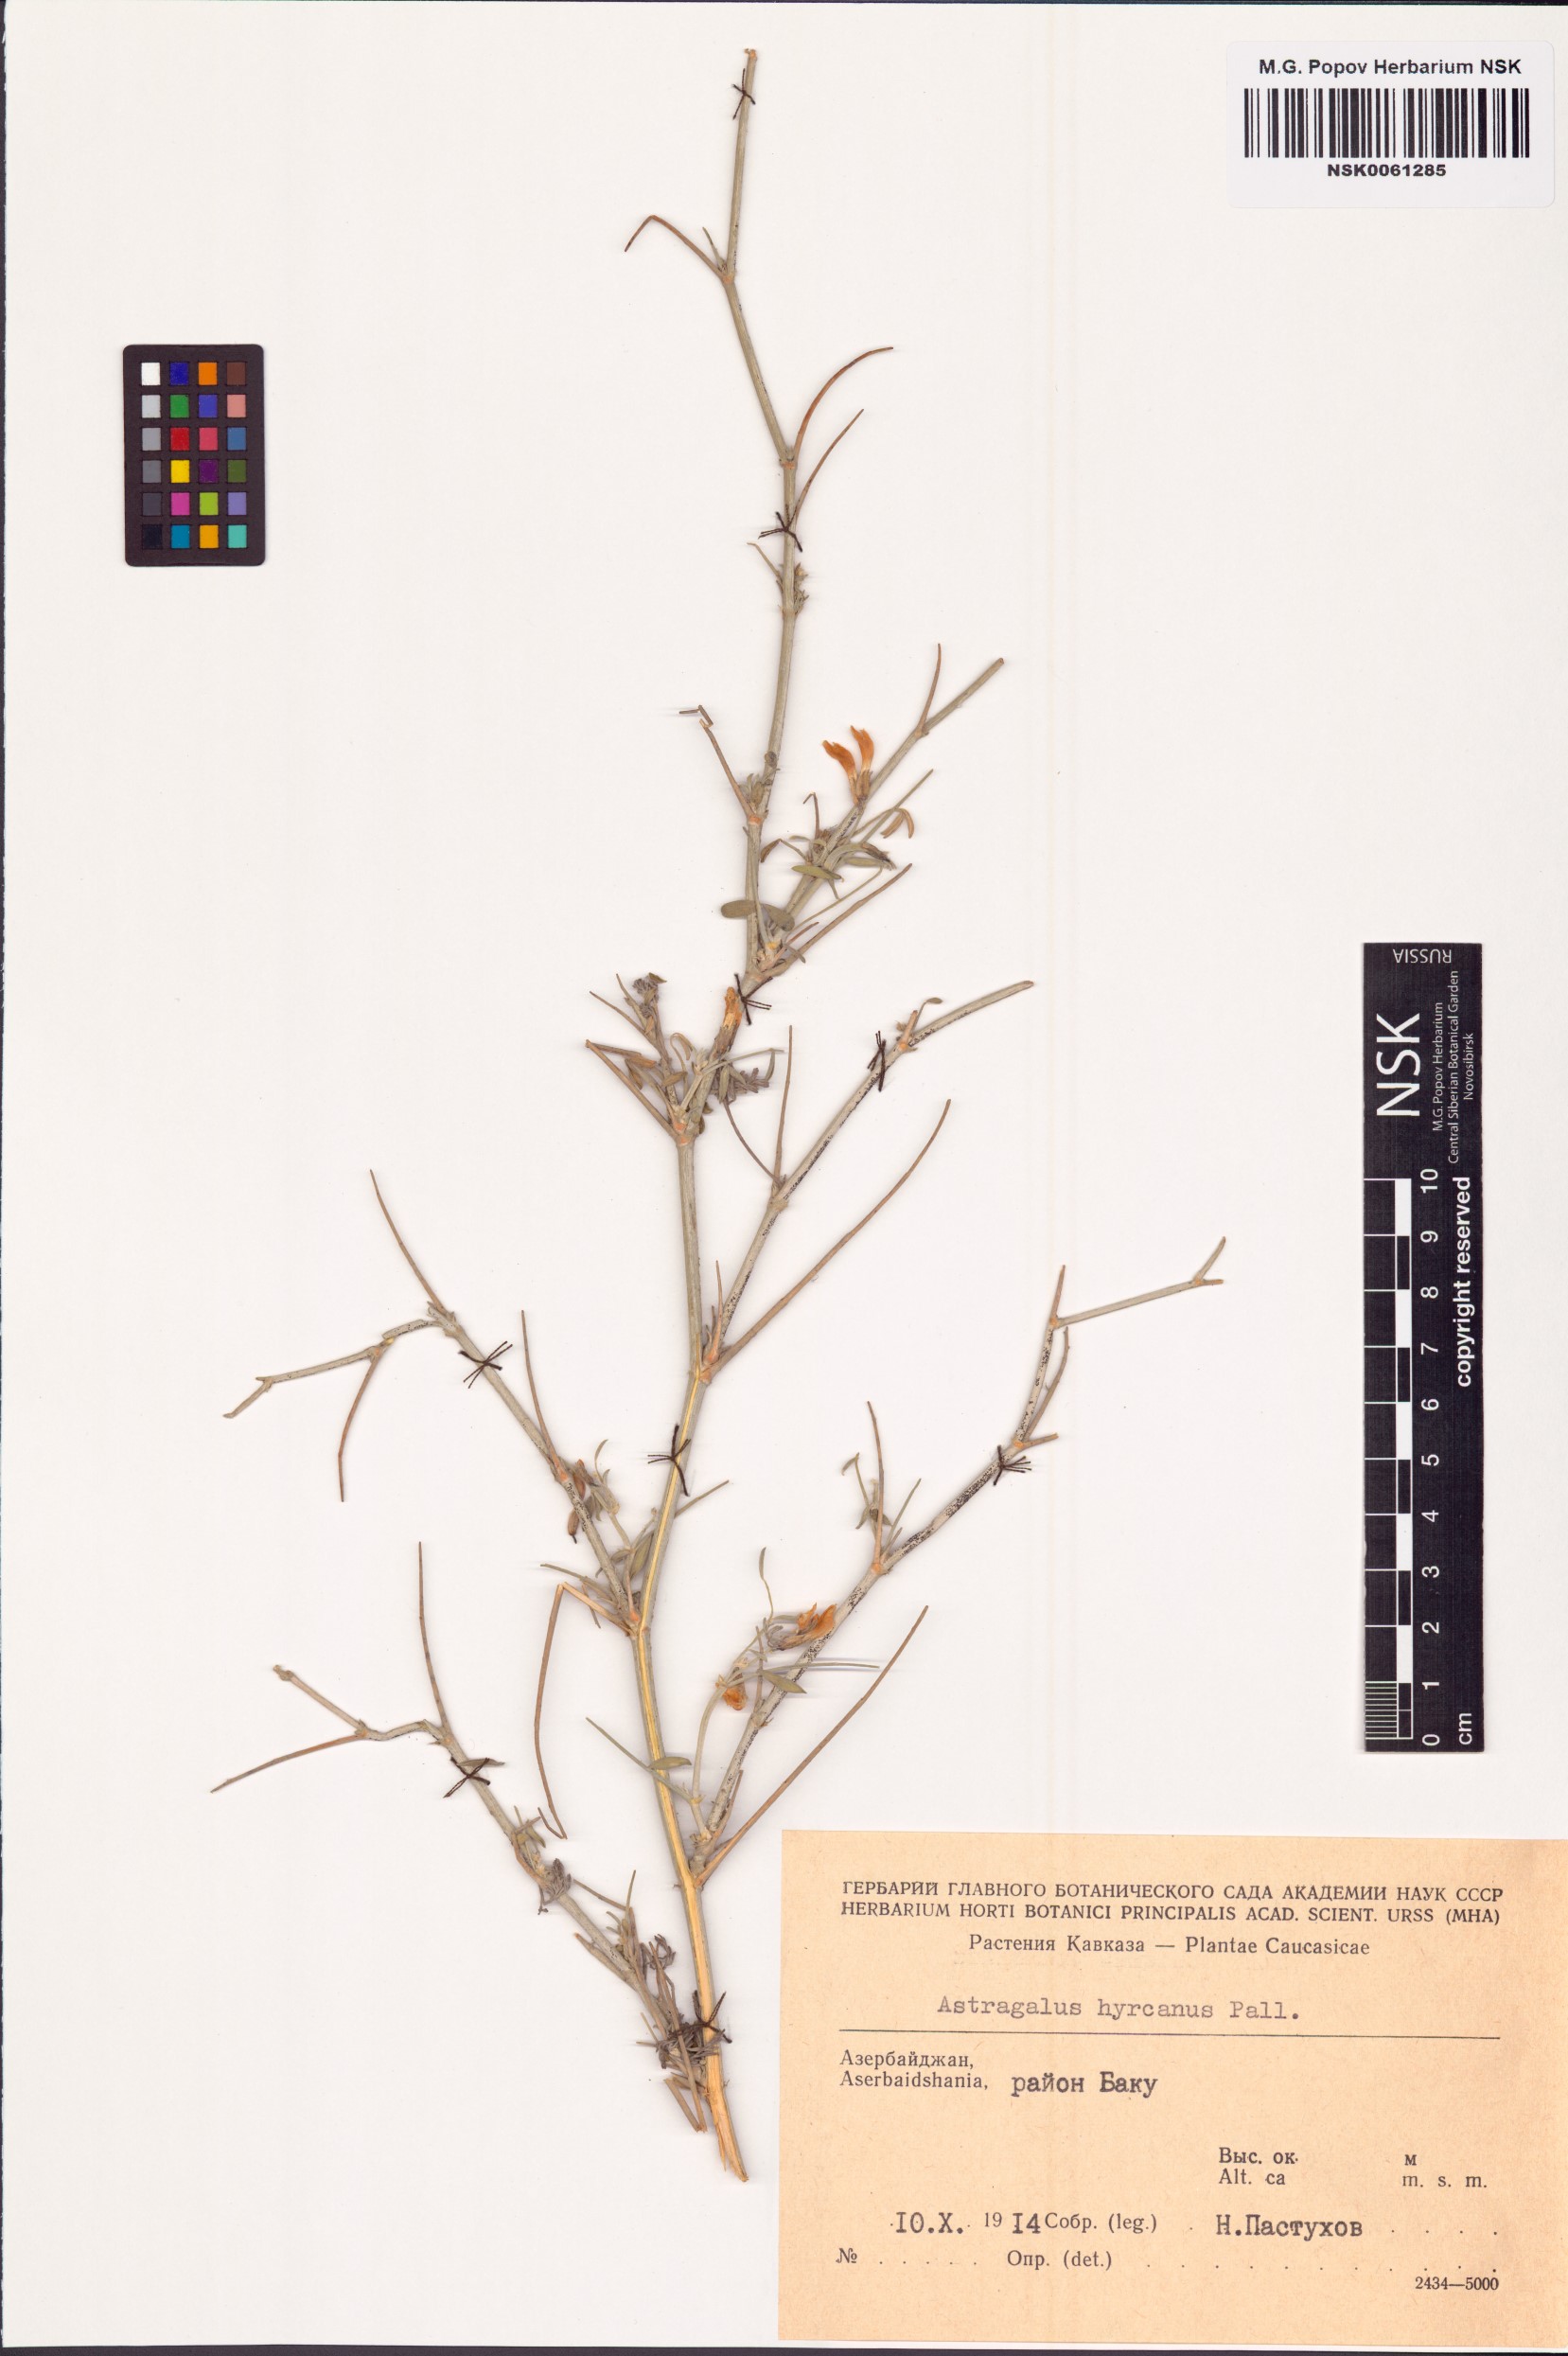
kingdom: Plantae
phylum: Tracheophyta
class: Magnoliopsida
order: Fabales
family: Fabaceae
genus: Astragalus
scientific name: Astragalus hyrcanus
